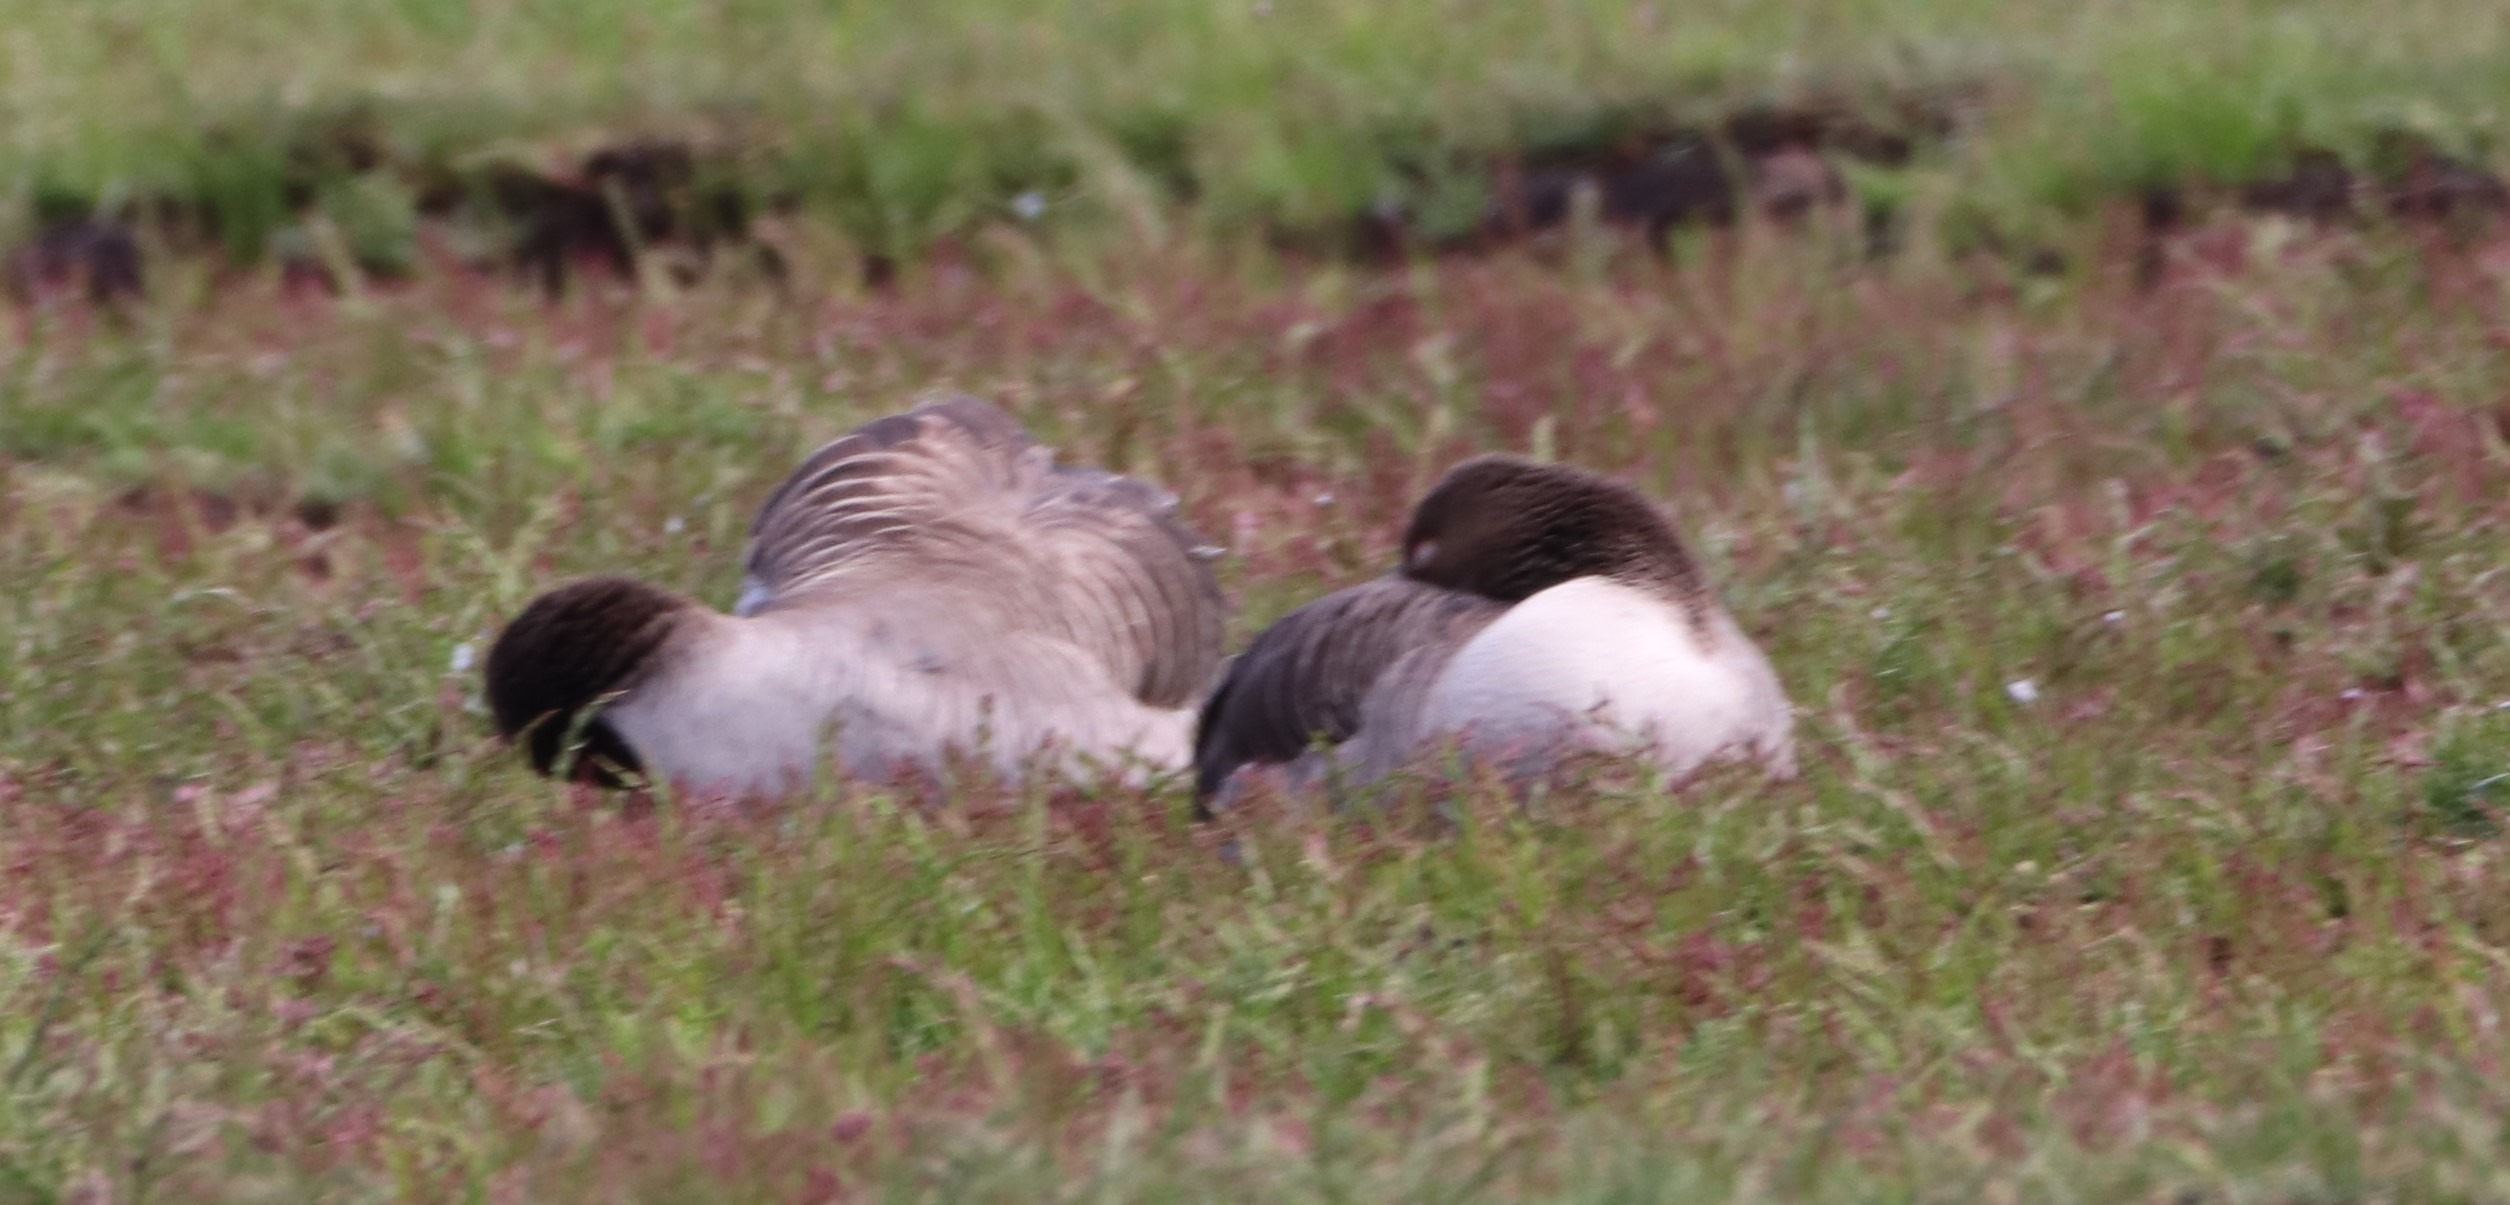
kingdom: Animalia
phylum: Chordata
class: Aves
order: Anseriformes
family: Anatidae
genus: Anser
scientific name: Anser anser
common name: Grågås
